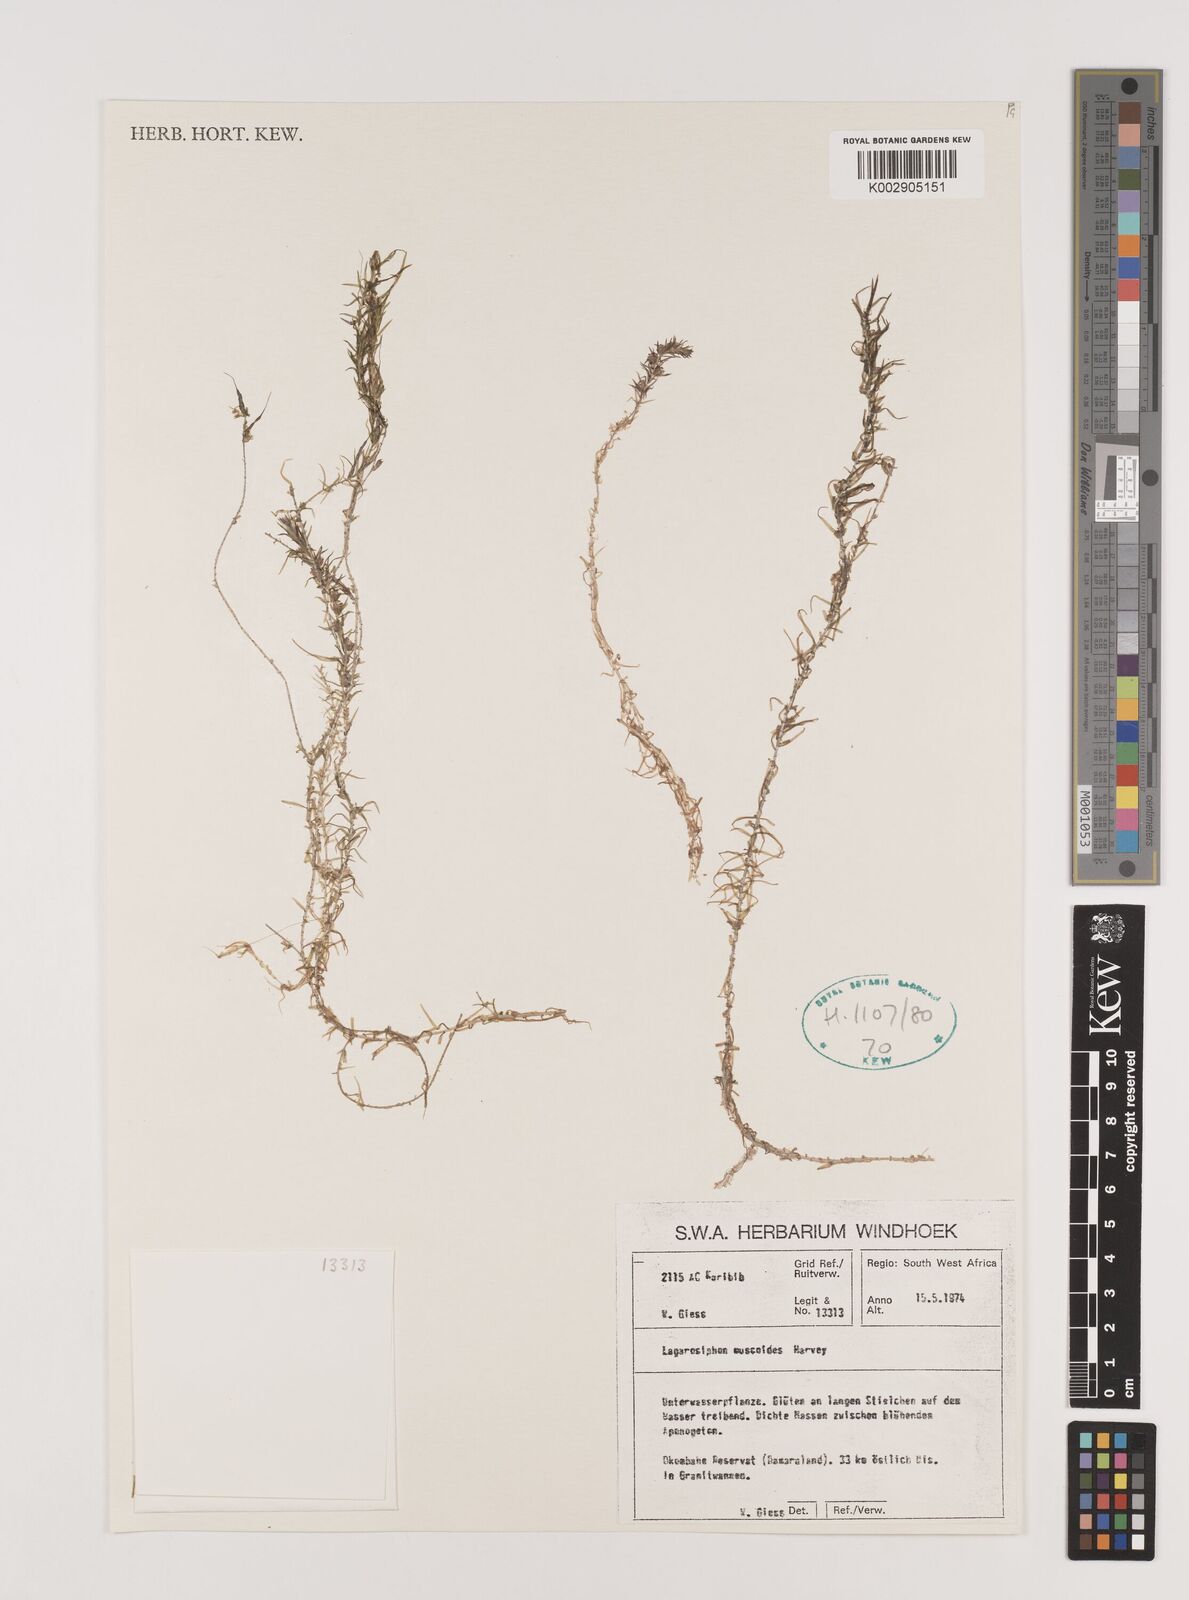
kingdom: Plantae
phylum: Tracheophyta
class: Liliopsida
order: Alismatales
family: Hydrocharitaceae
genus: Lagarosiphon
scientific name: Lagarosiphon muscoides
